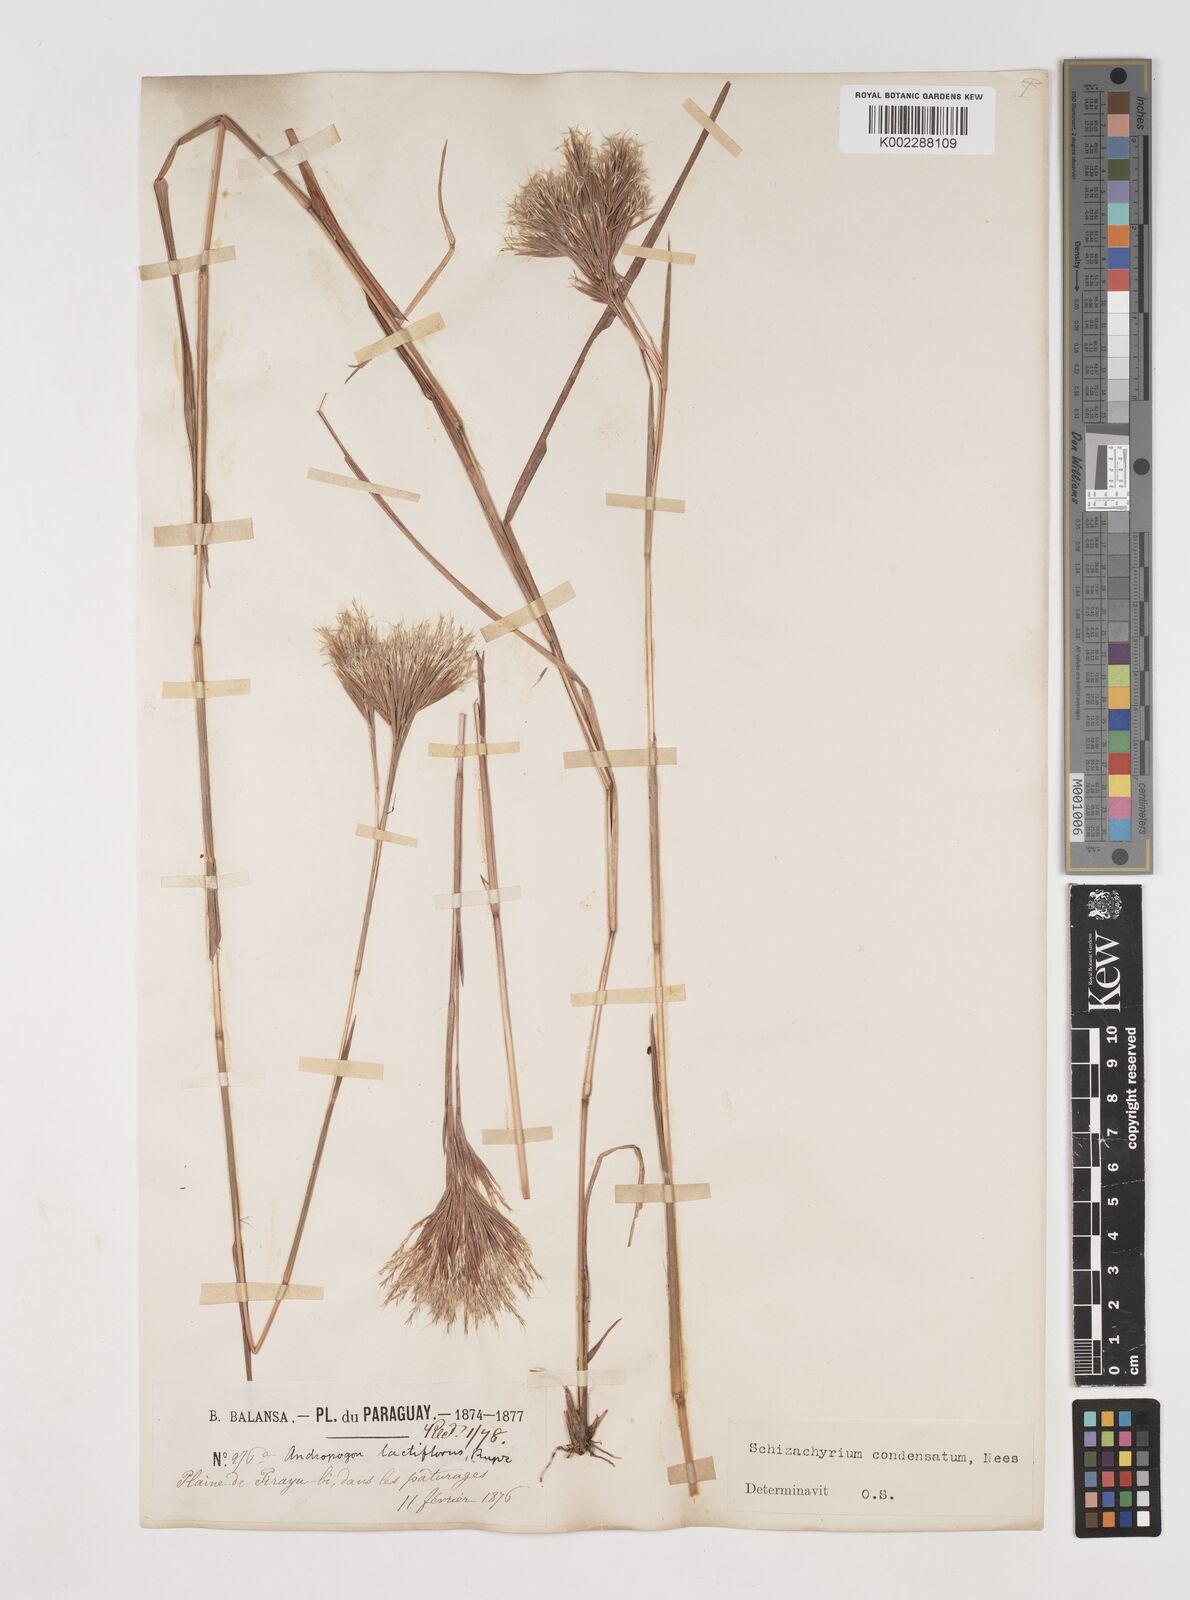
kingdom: Plantae
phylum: Tracheophyta
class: Liliopsida
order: Poales
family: Poaceae
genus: Schizachyrium
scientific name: Schizachyrium condensatum
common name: Bush beardgrass
